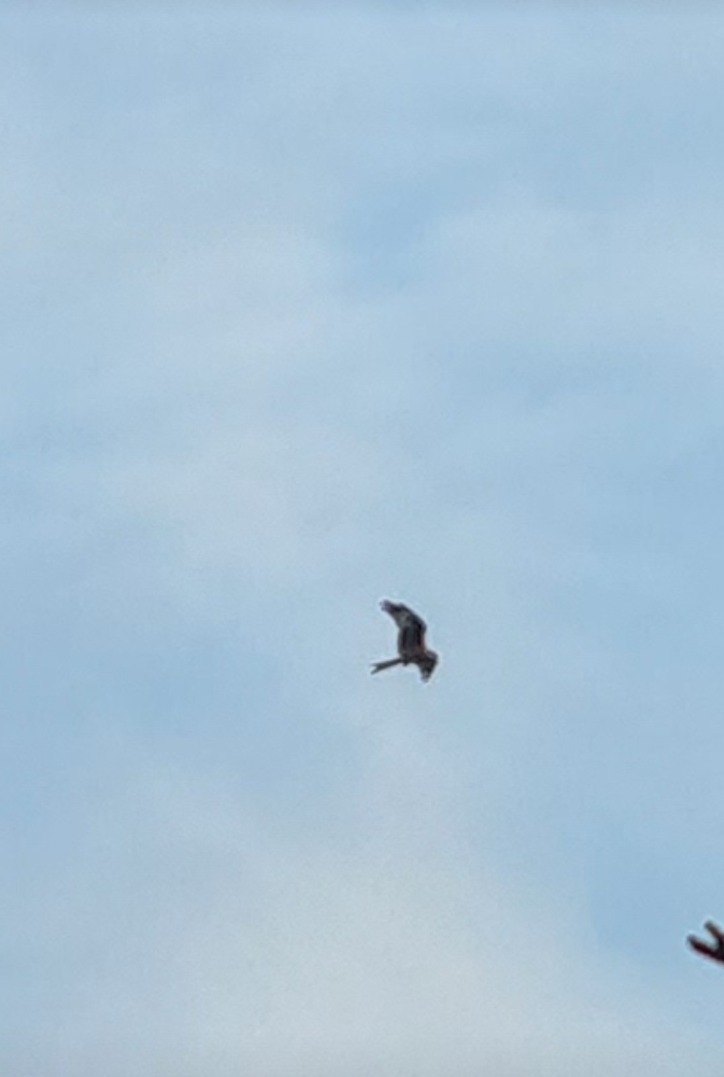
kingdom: Animalia
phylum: Chordata
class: Aves
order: Accipitriformes
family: Accipitridae
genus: Milvus
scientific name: Milvus milvus
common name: Rød glente
